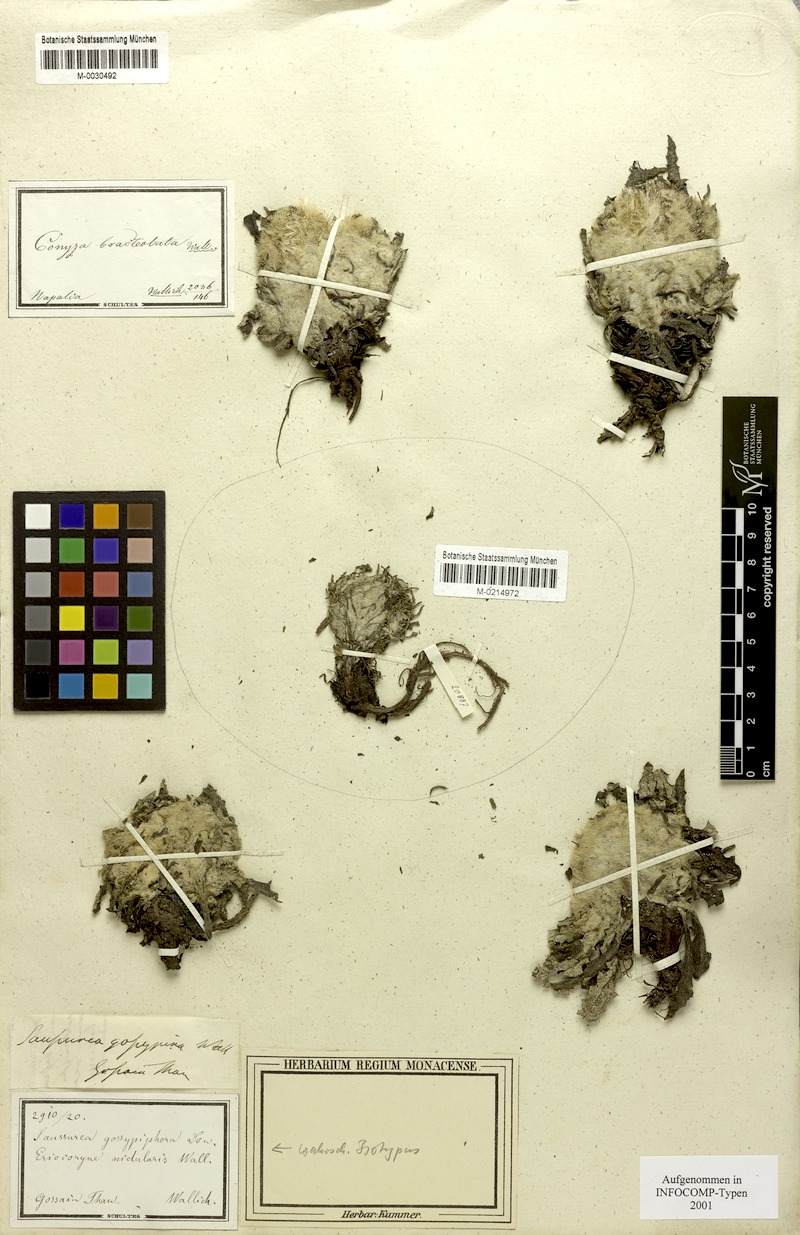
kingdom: Plantae
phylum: Tracheophyta
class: Magnoliopsida
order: Asterales
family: Asteraceae
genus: Saussurea
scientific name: Saussurea simpsoniana
